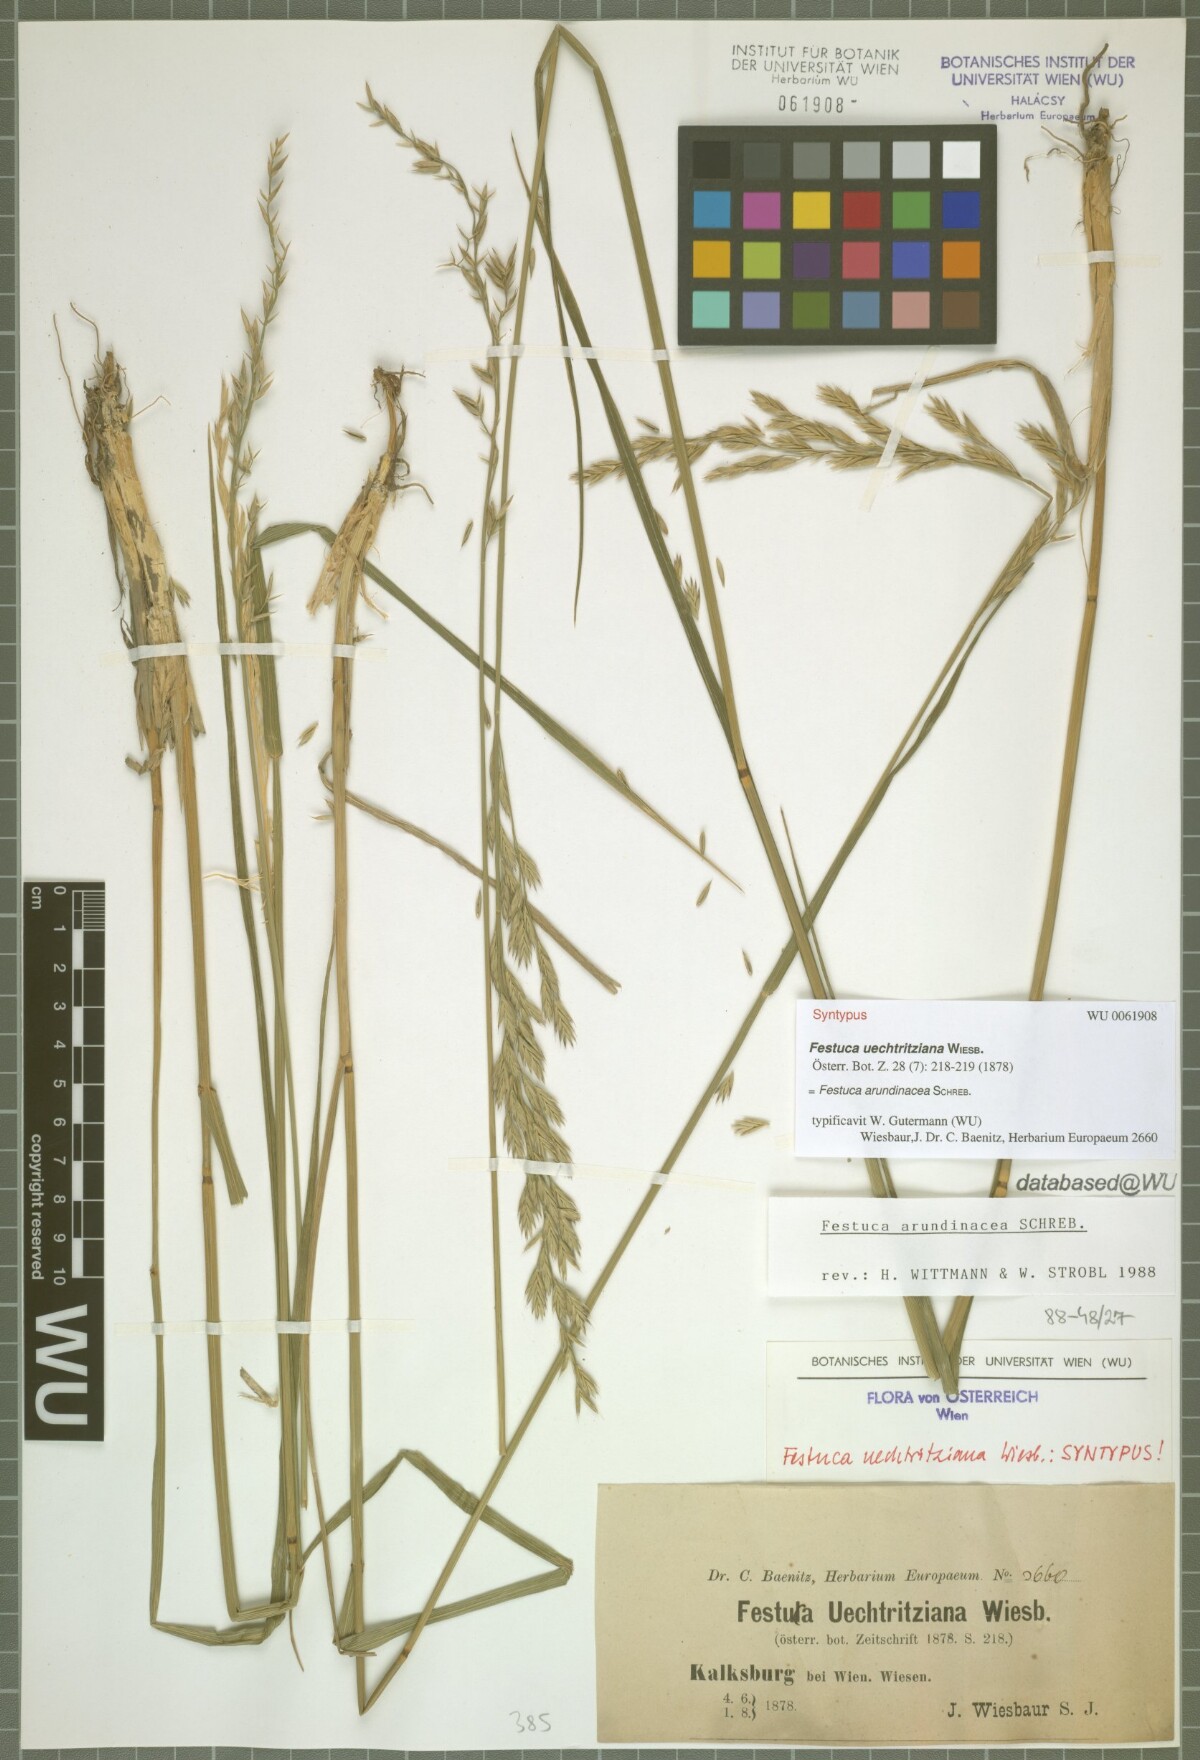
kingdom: Plantae
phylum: Tracheophyta
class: Liliopsida
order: Poales
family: Poaceae
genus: Lolium
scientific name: Lolium arundinaceum
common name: Reed fescue
